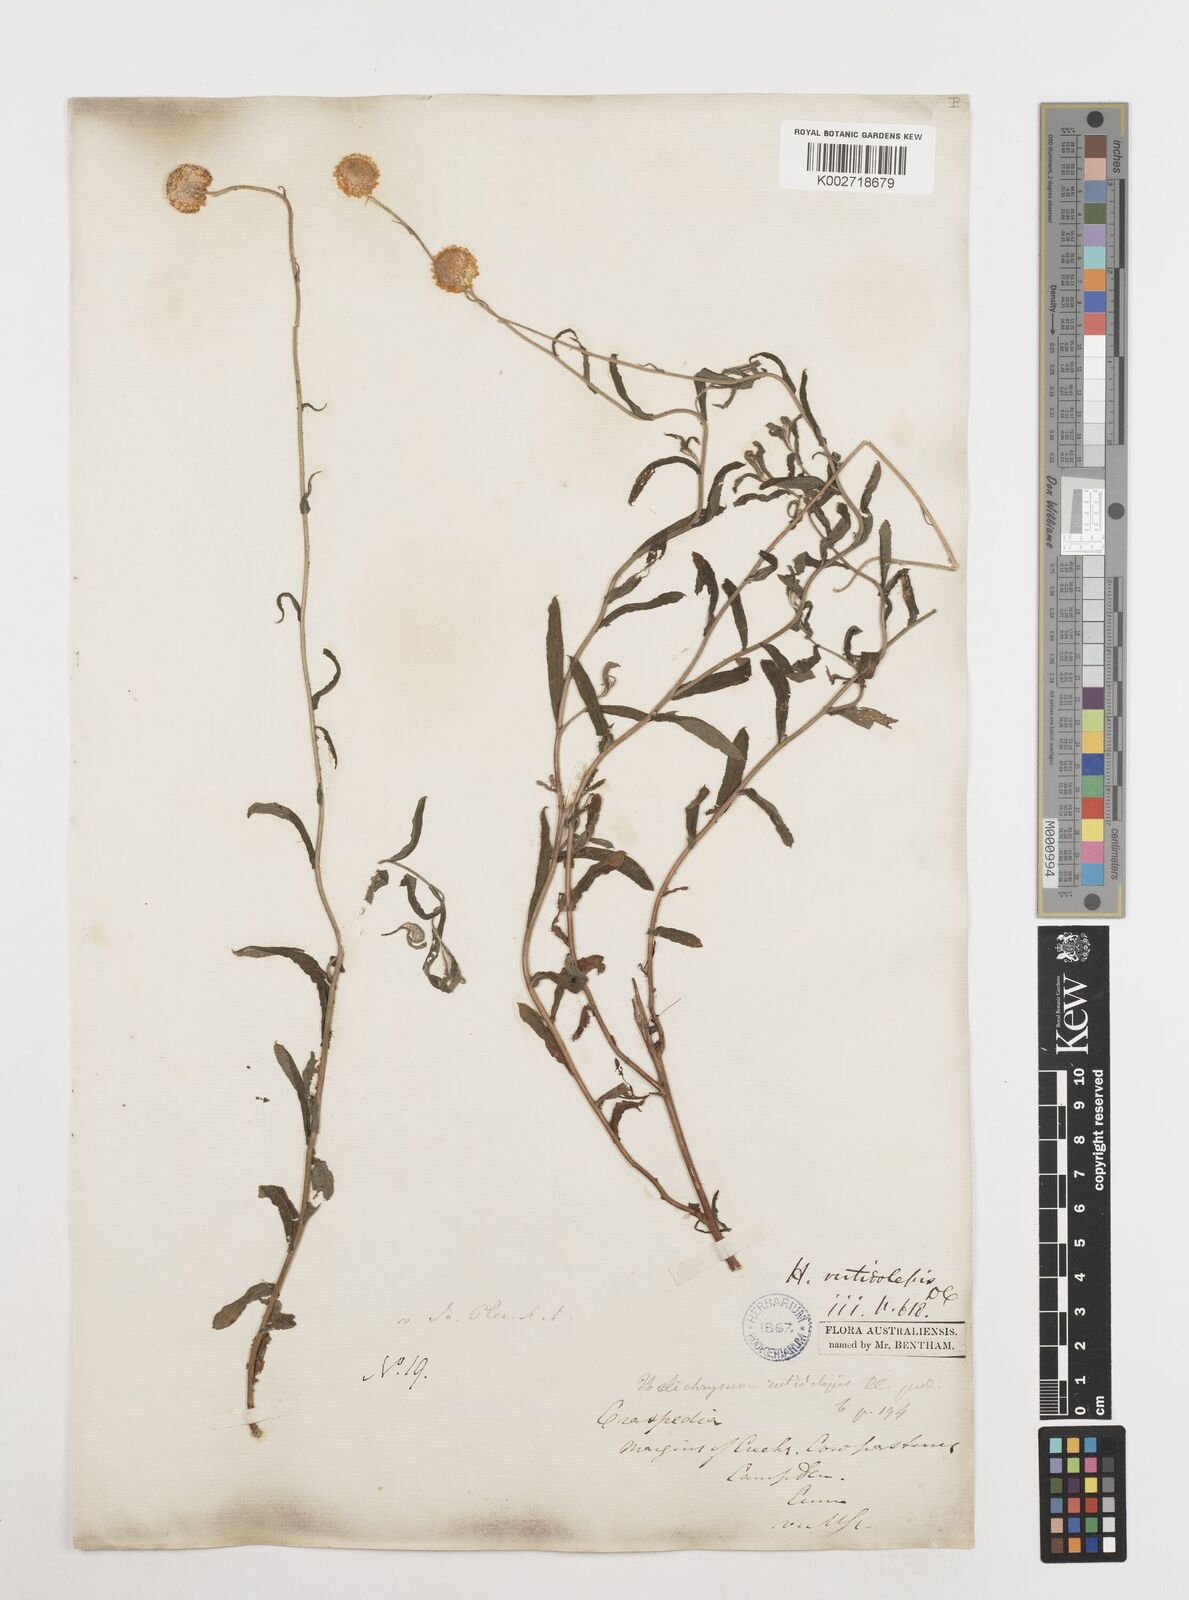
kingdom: Plantae
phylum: Tracheophyta
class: Magnoliopsida
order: Asterales
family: Asteraceae
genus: Coronidium
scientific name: Coronidium rutidolepis
